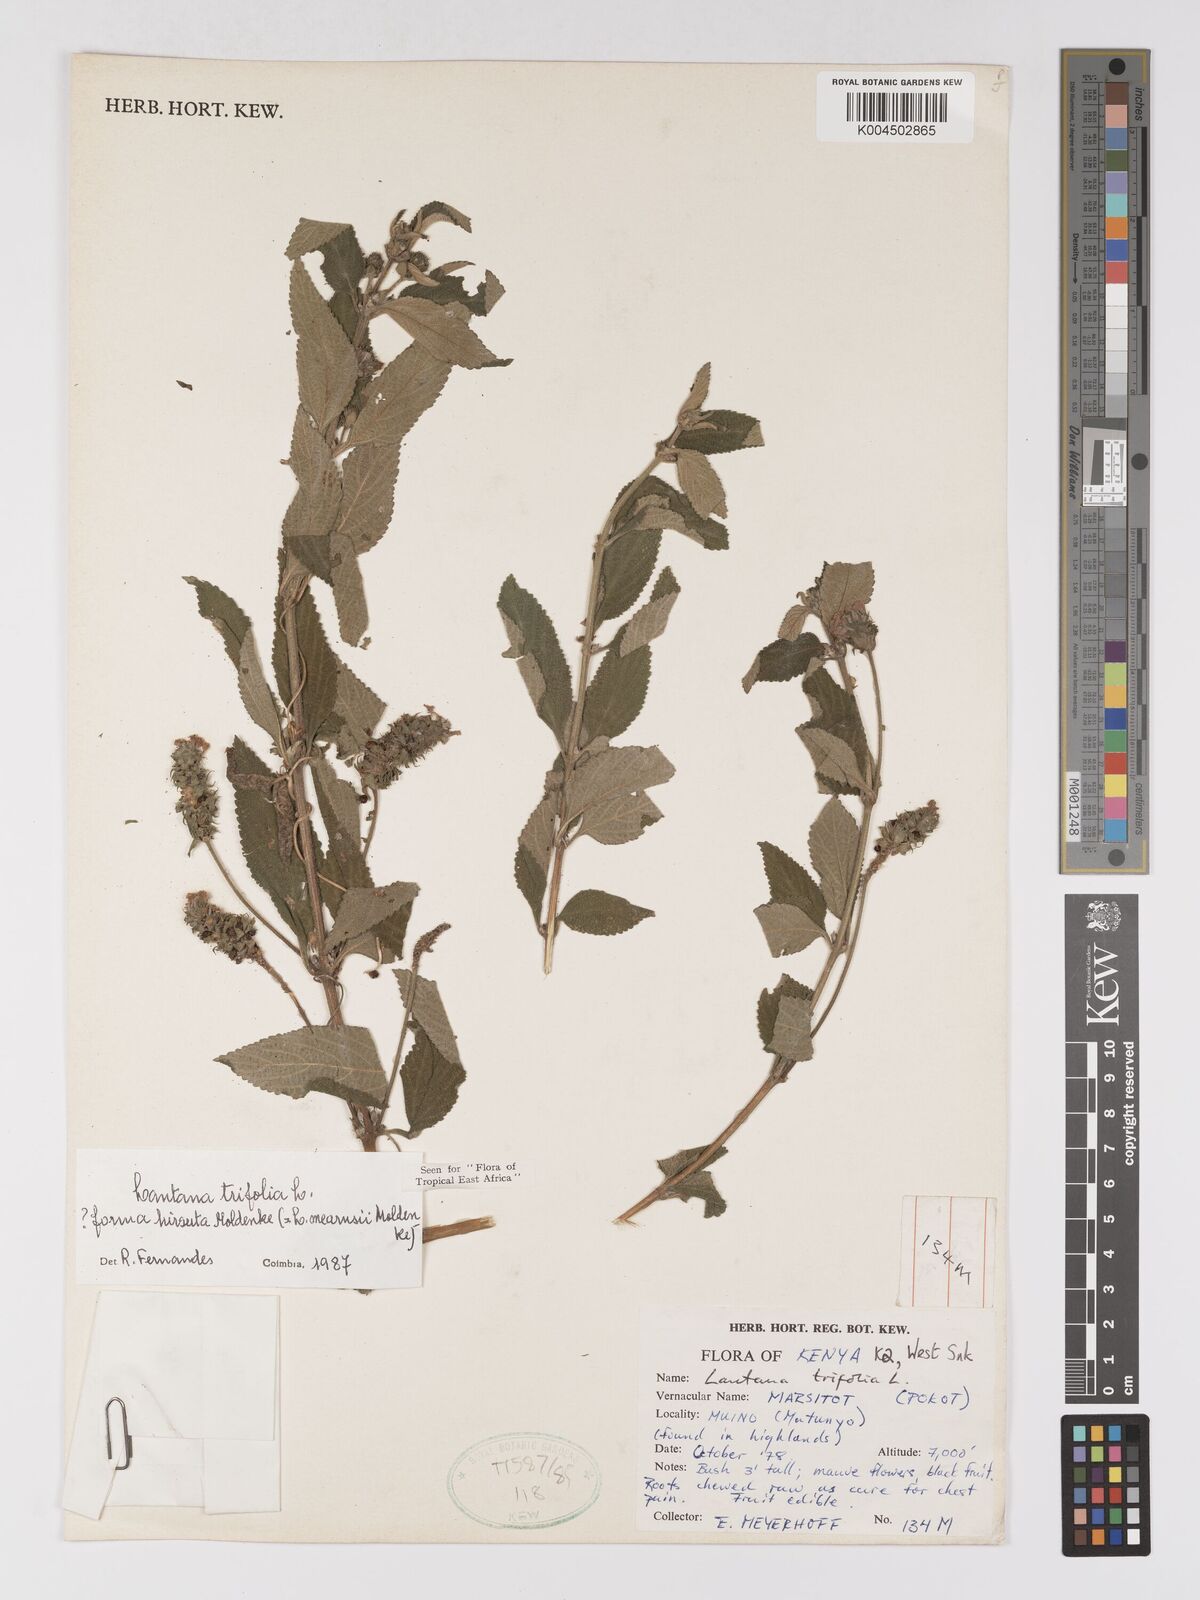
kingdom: Plantae
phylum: Tracheophyta
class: Magnoliopsida
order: Lamiales
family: Verbenaceae
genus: Lantana
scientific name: Lantana trifolia
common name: Sweet-sage
